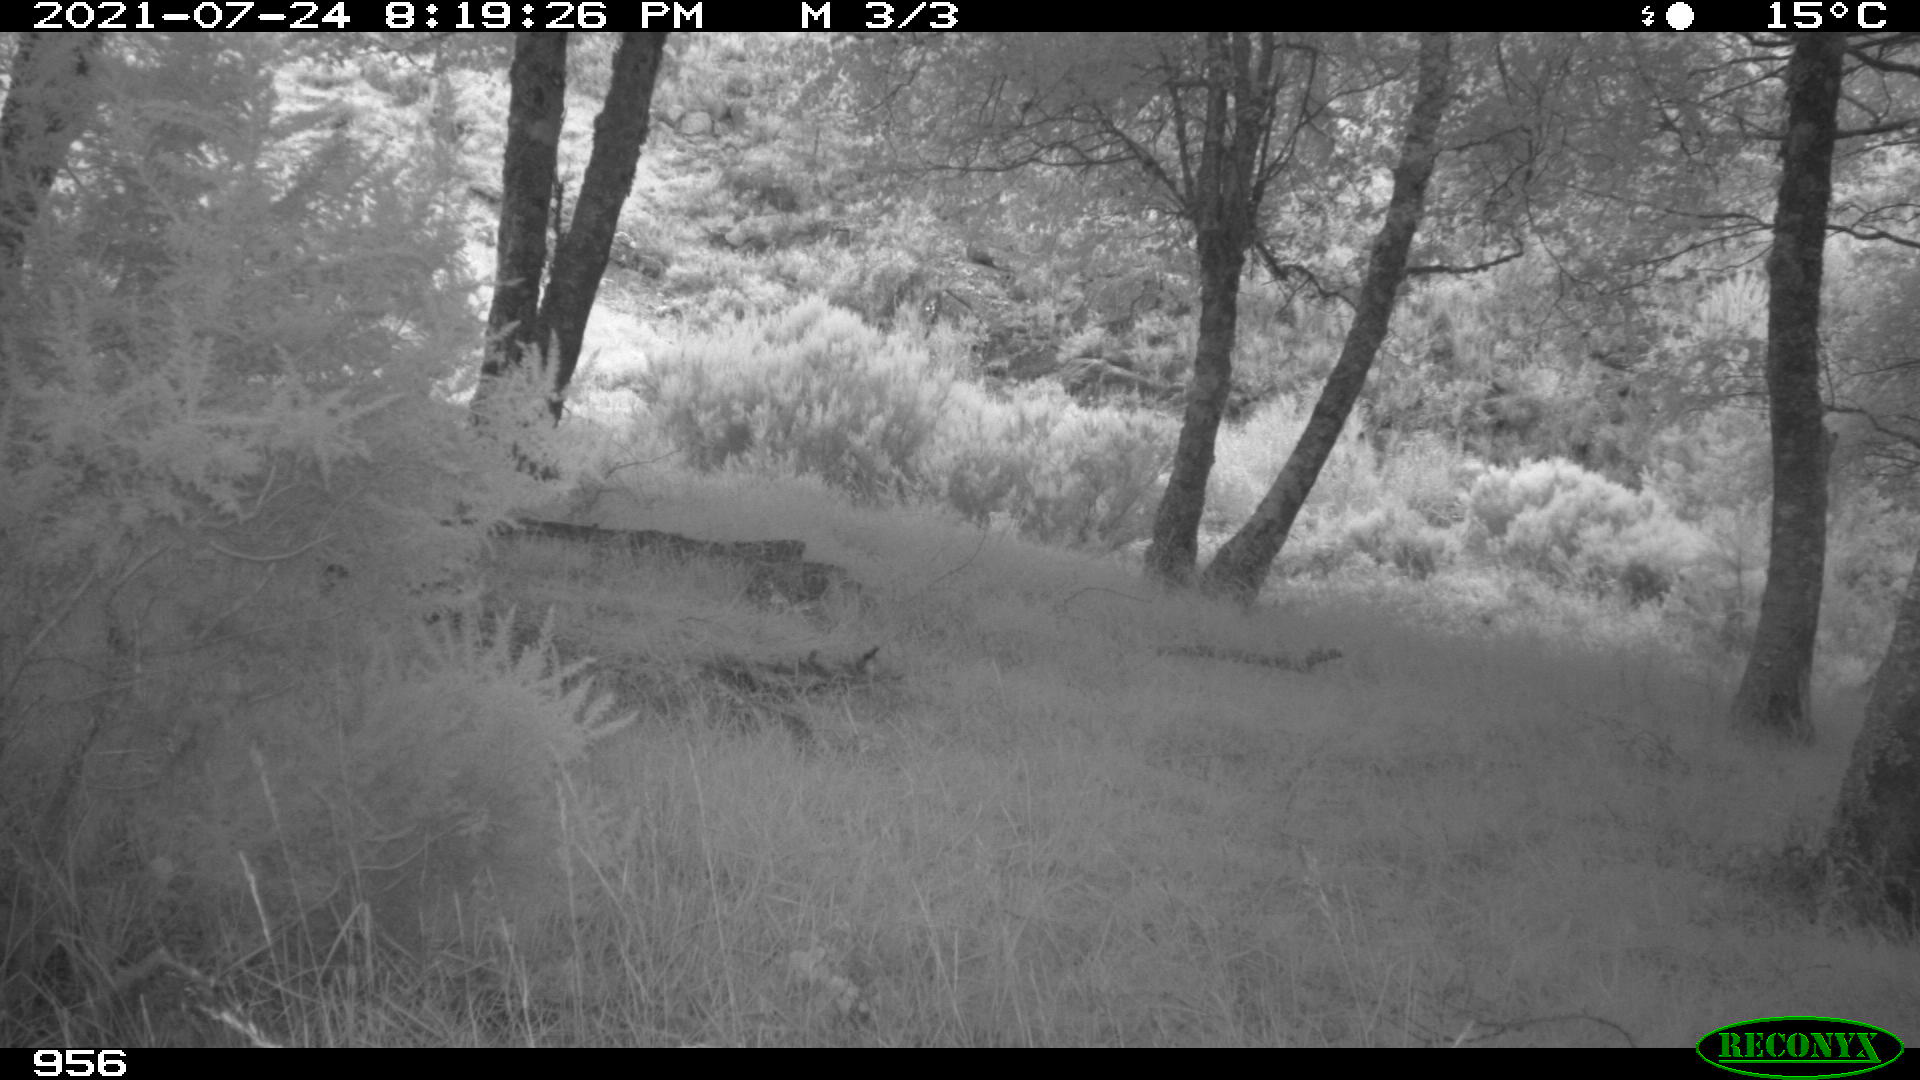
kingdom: Animalia
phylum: Chordata
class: Mammalia
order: Artiodactyla
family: Cervidae
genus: Capreolus
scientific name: Capreolus capreolus
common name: Western roe deer
